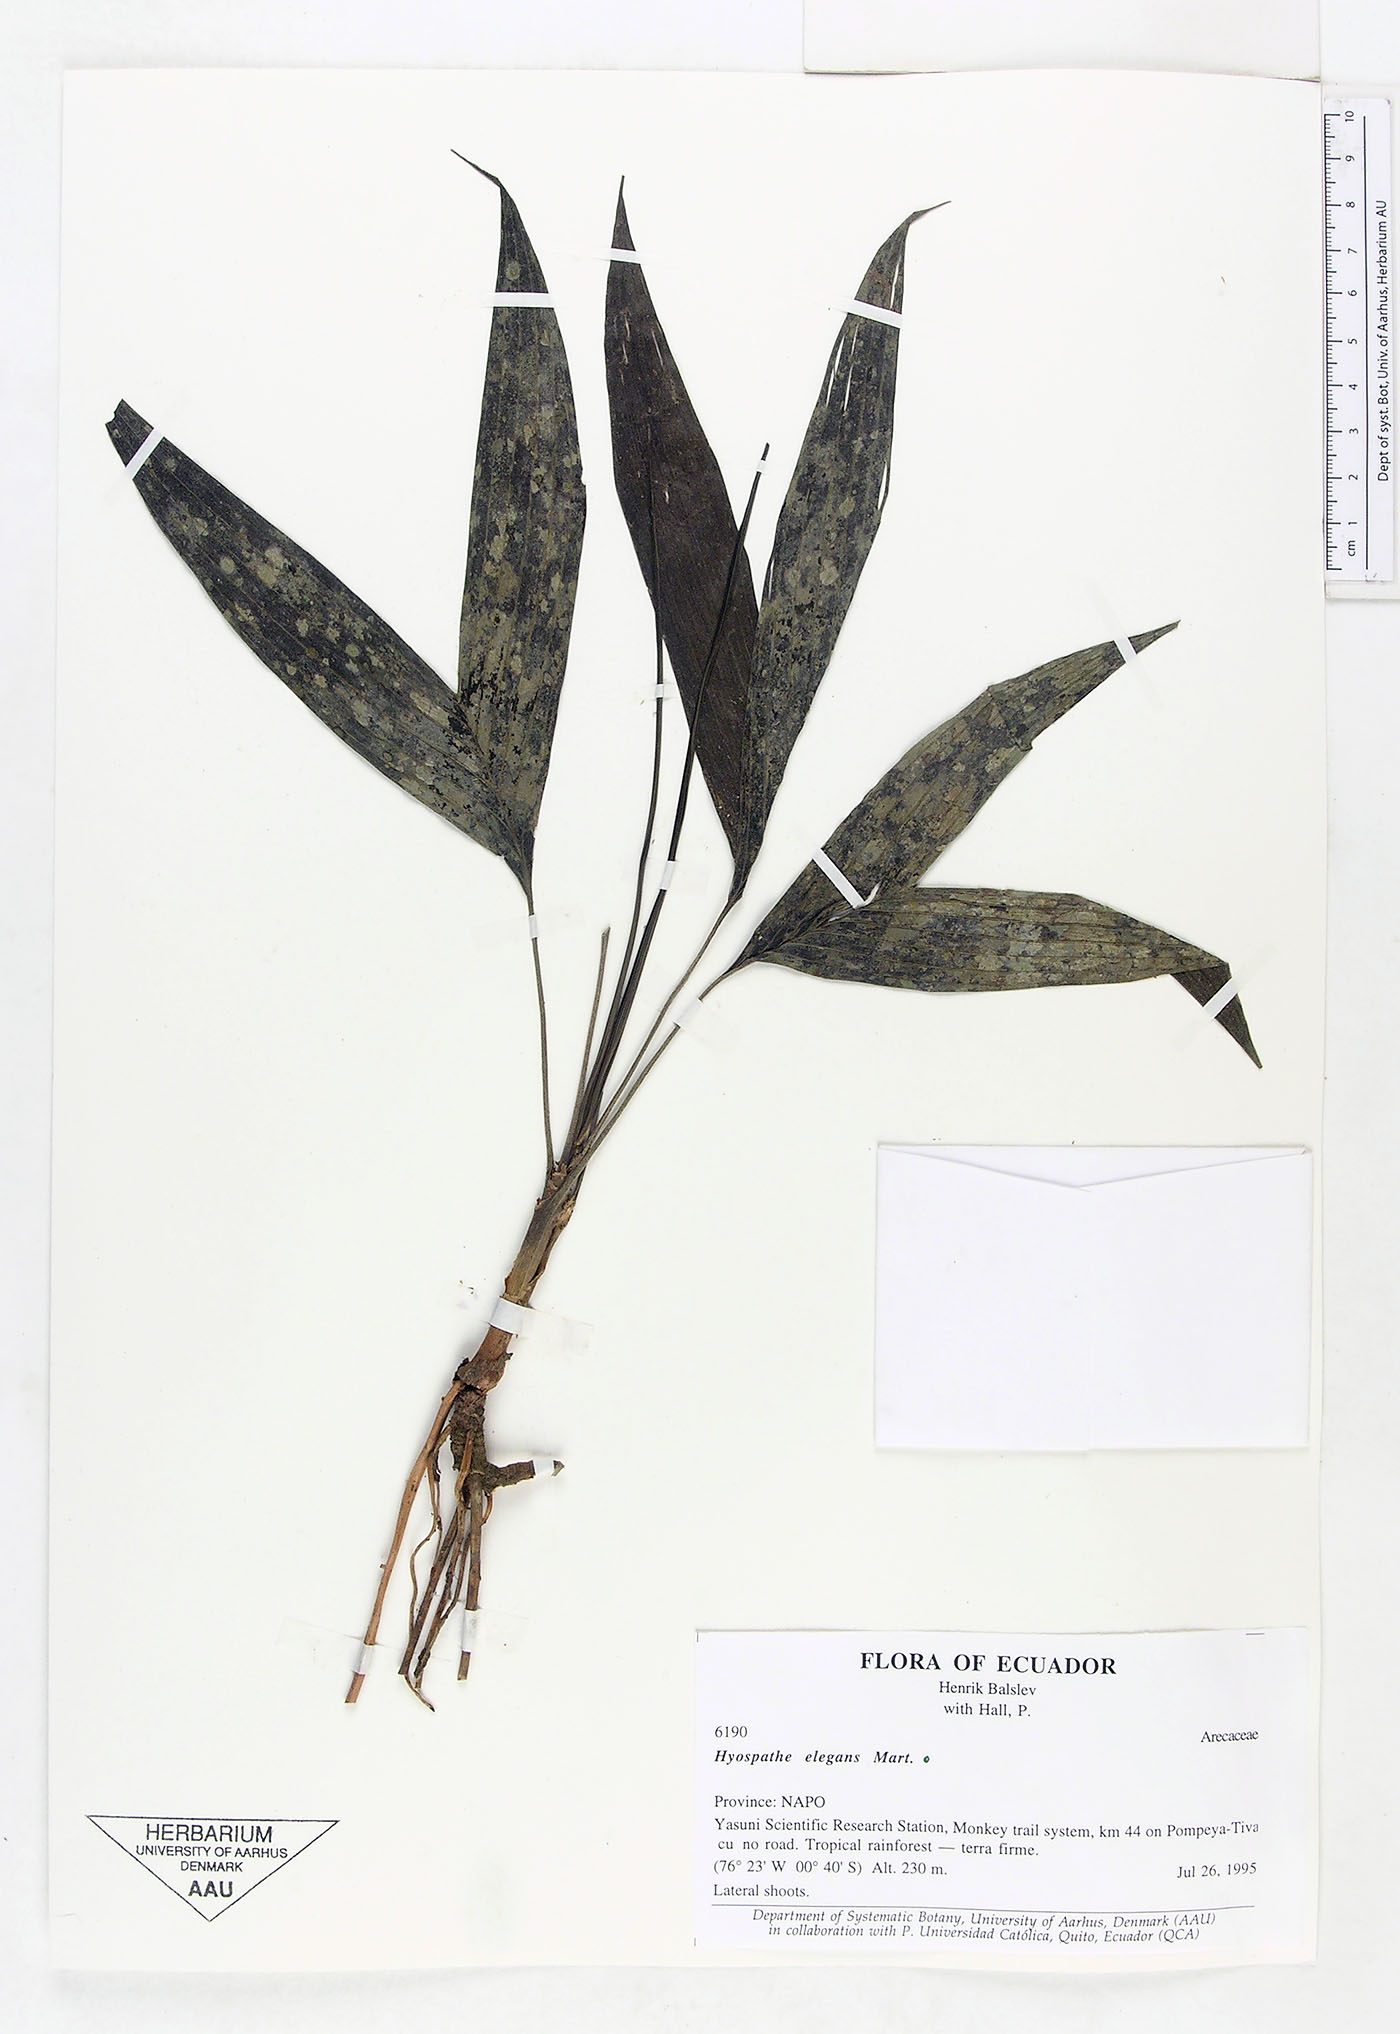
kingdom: Plantae
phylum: Tracheophyta
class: Liliopsida
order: Arecales
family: Arecaceae
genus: Hyospathe
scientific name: Hyospathe elegans
